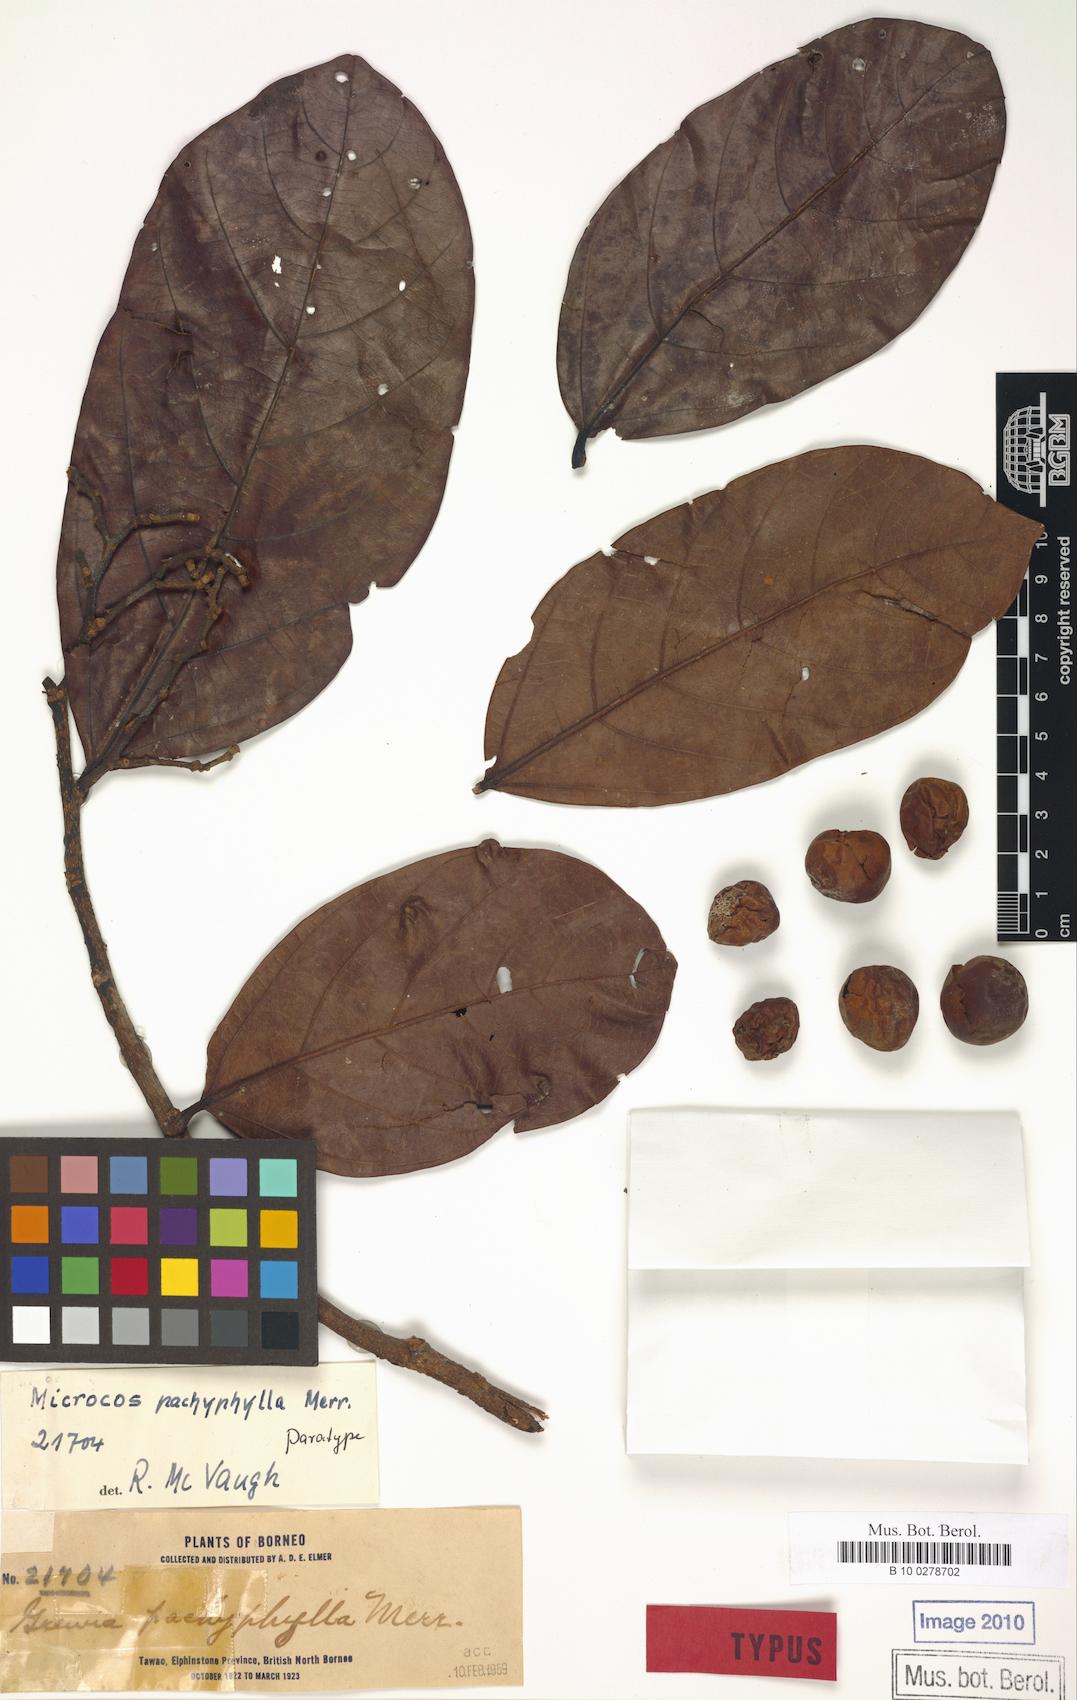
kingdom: Plantae
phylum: Tracheophyta
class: Magnoliopsida
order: Malvales
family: Malvaceae
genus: Microcos
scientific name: Microcos pachyphylla
